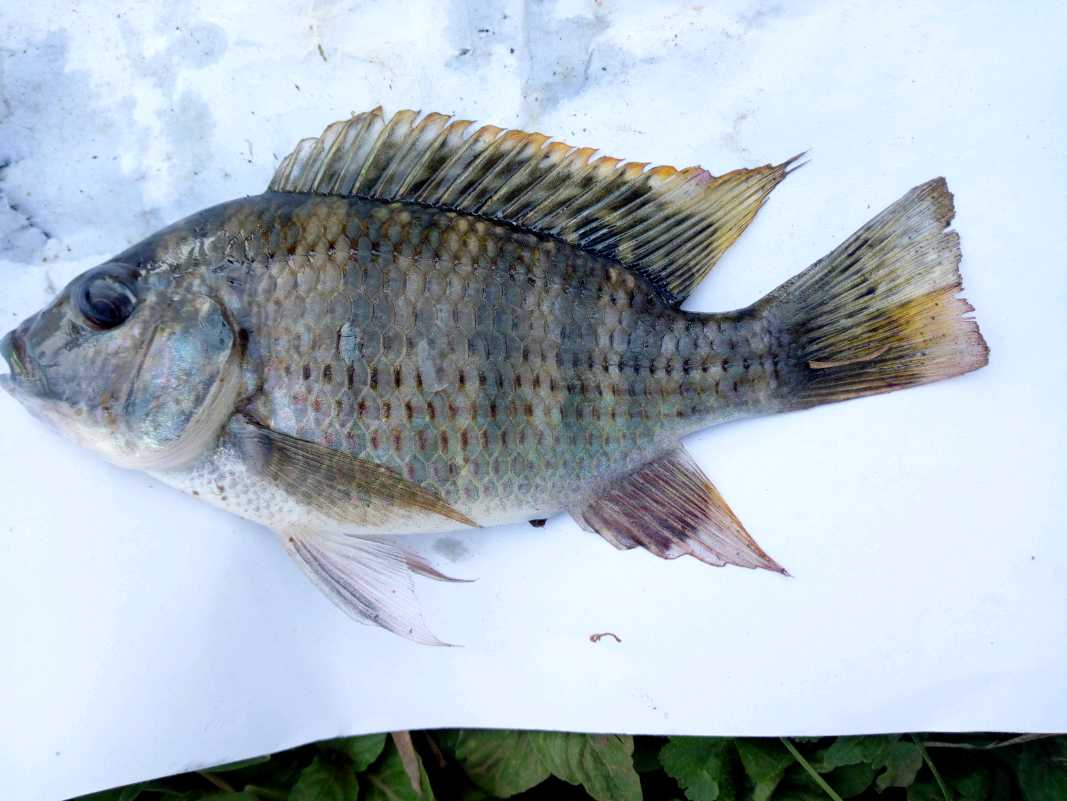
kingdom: Animalia
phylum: Chordata
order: Perciformes
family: Cichlidae
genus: Coptodon
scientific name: Coptodon rendalli
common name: Redbreast tilapia
